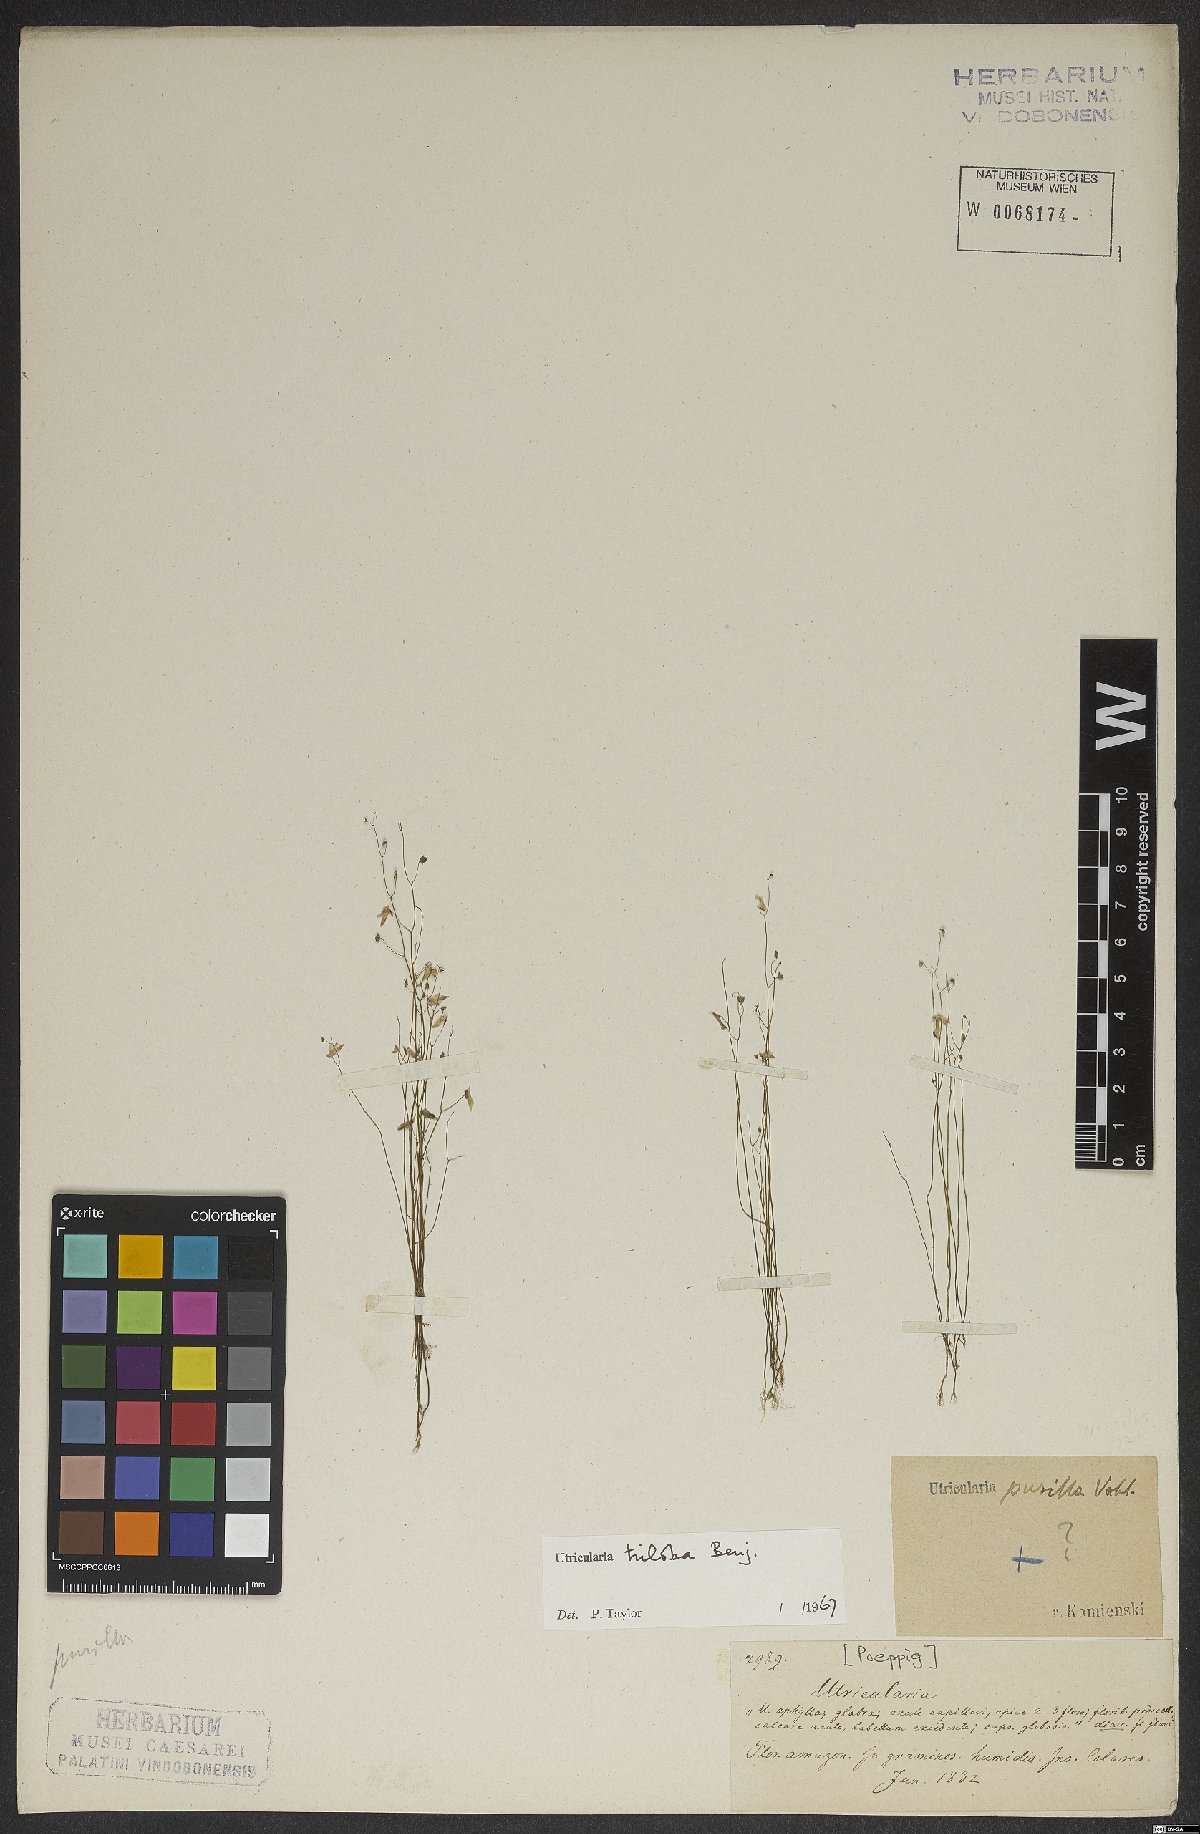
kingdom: Plantae
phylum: Tracheophyta
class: Magnoliopsida
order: Lamiales
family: Lentibulariaceae
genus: Utricularia
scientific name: Utricularia subulata
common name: Tiny bladderwort
